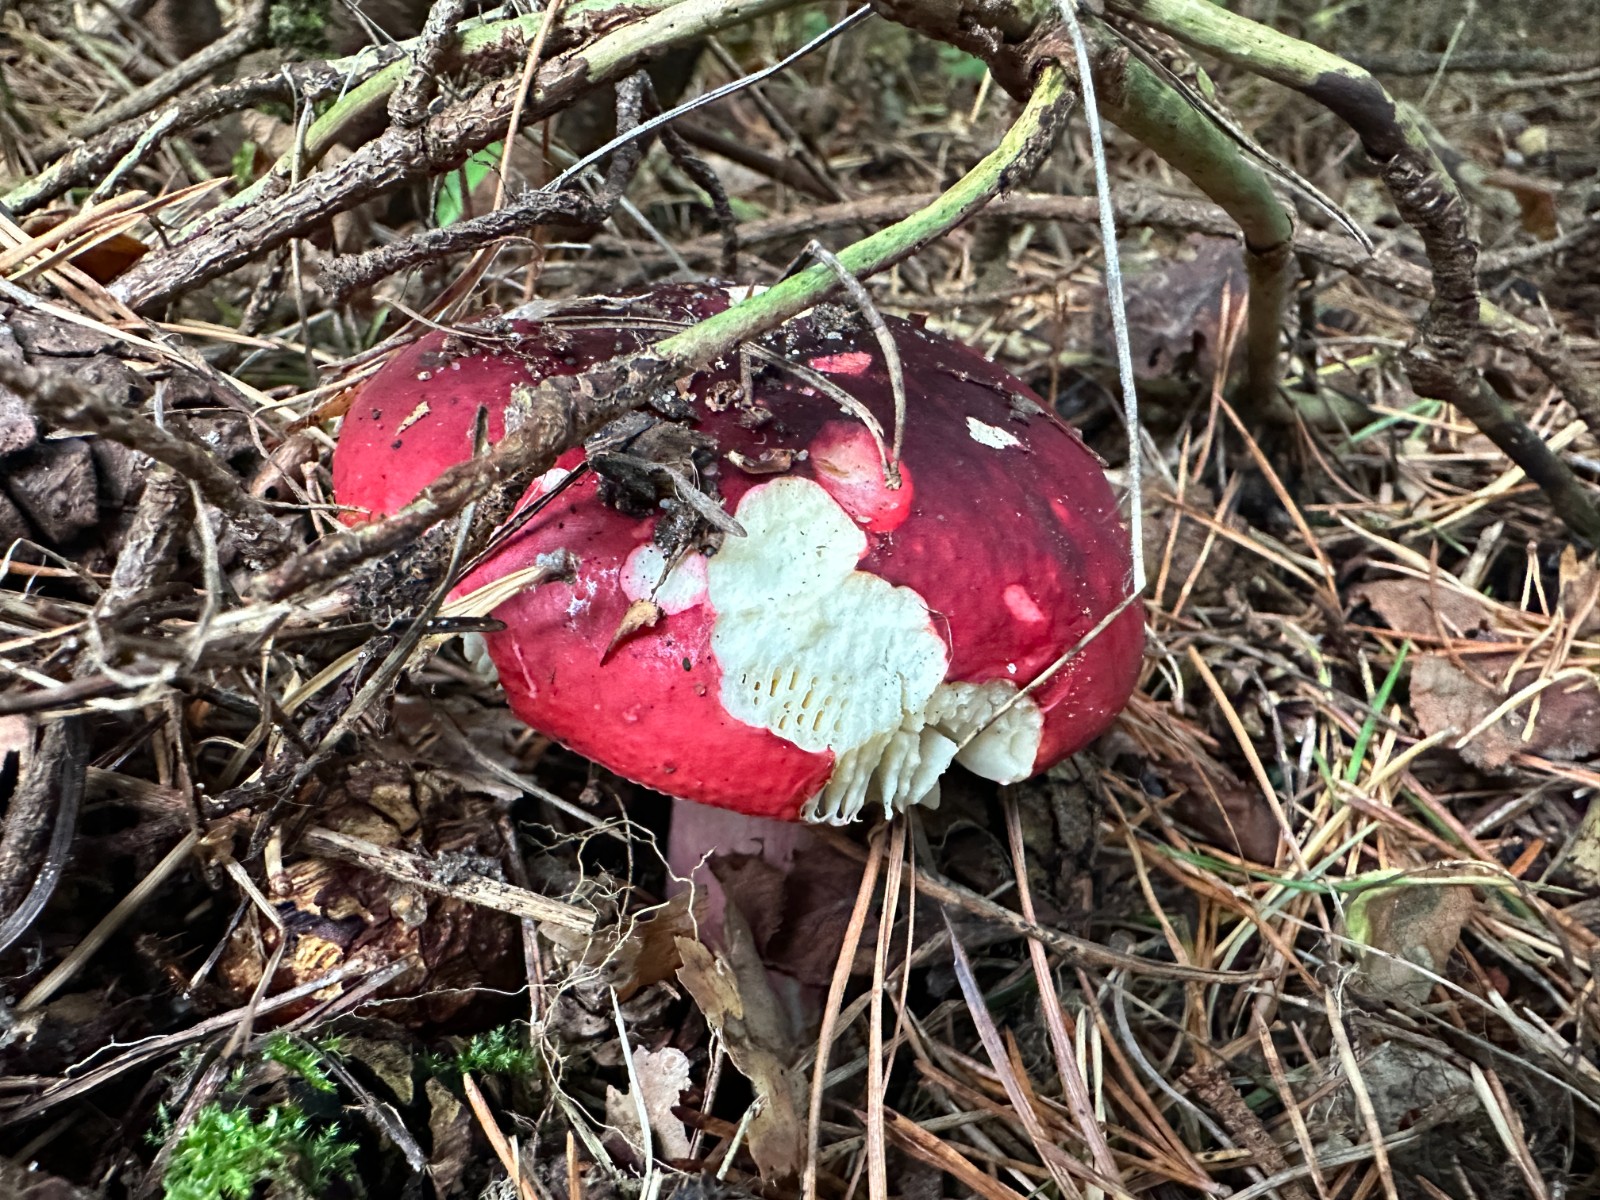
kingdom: Fungi
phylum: Basidiomycota
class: Agaricomycetes
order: Russulales
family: Russulaceae
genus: Russula
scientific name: Russula xerampelina
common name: hummer-skørhat
